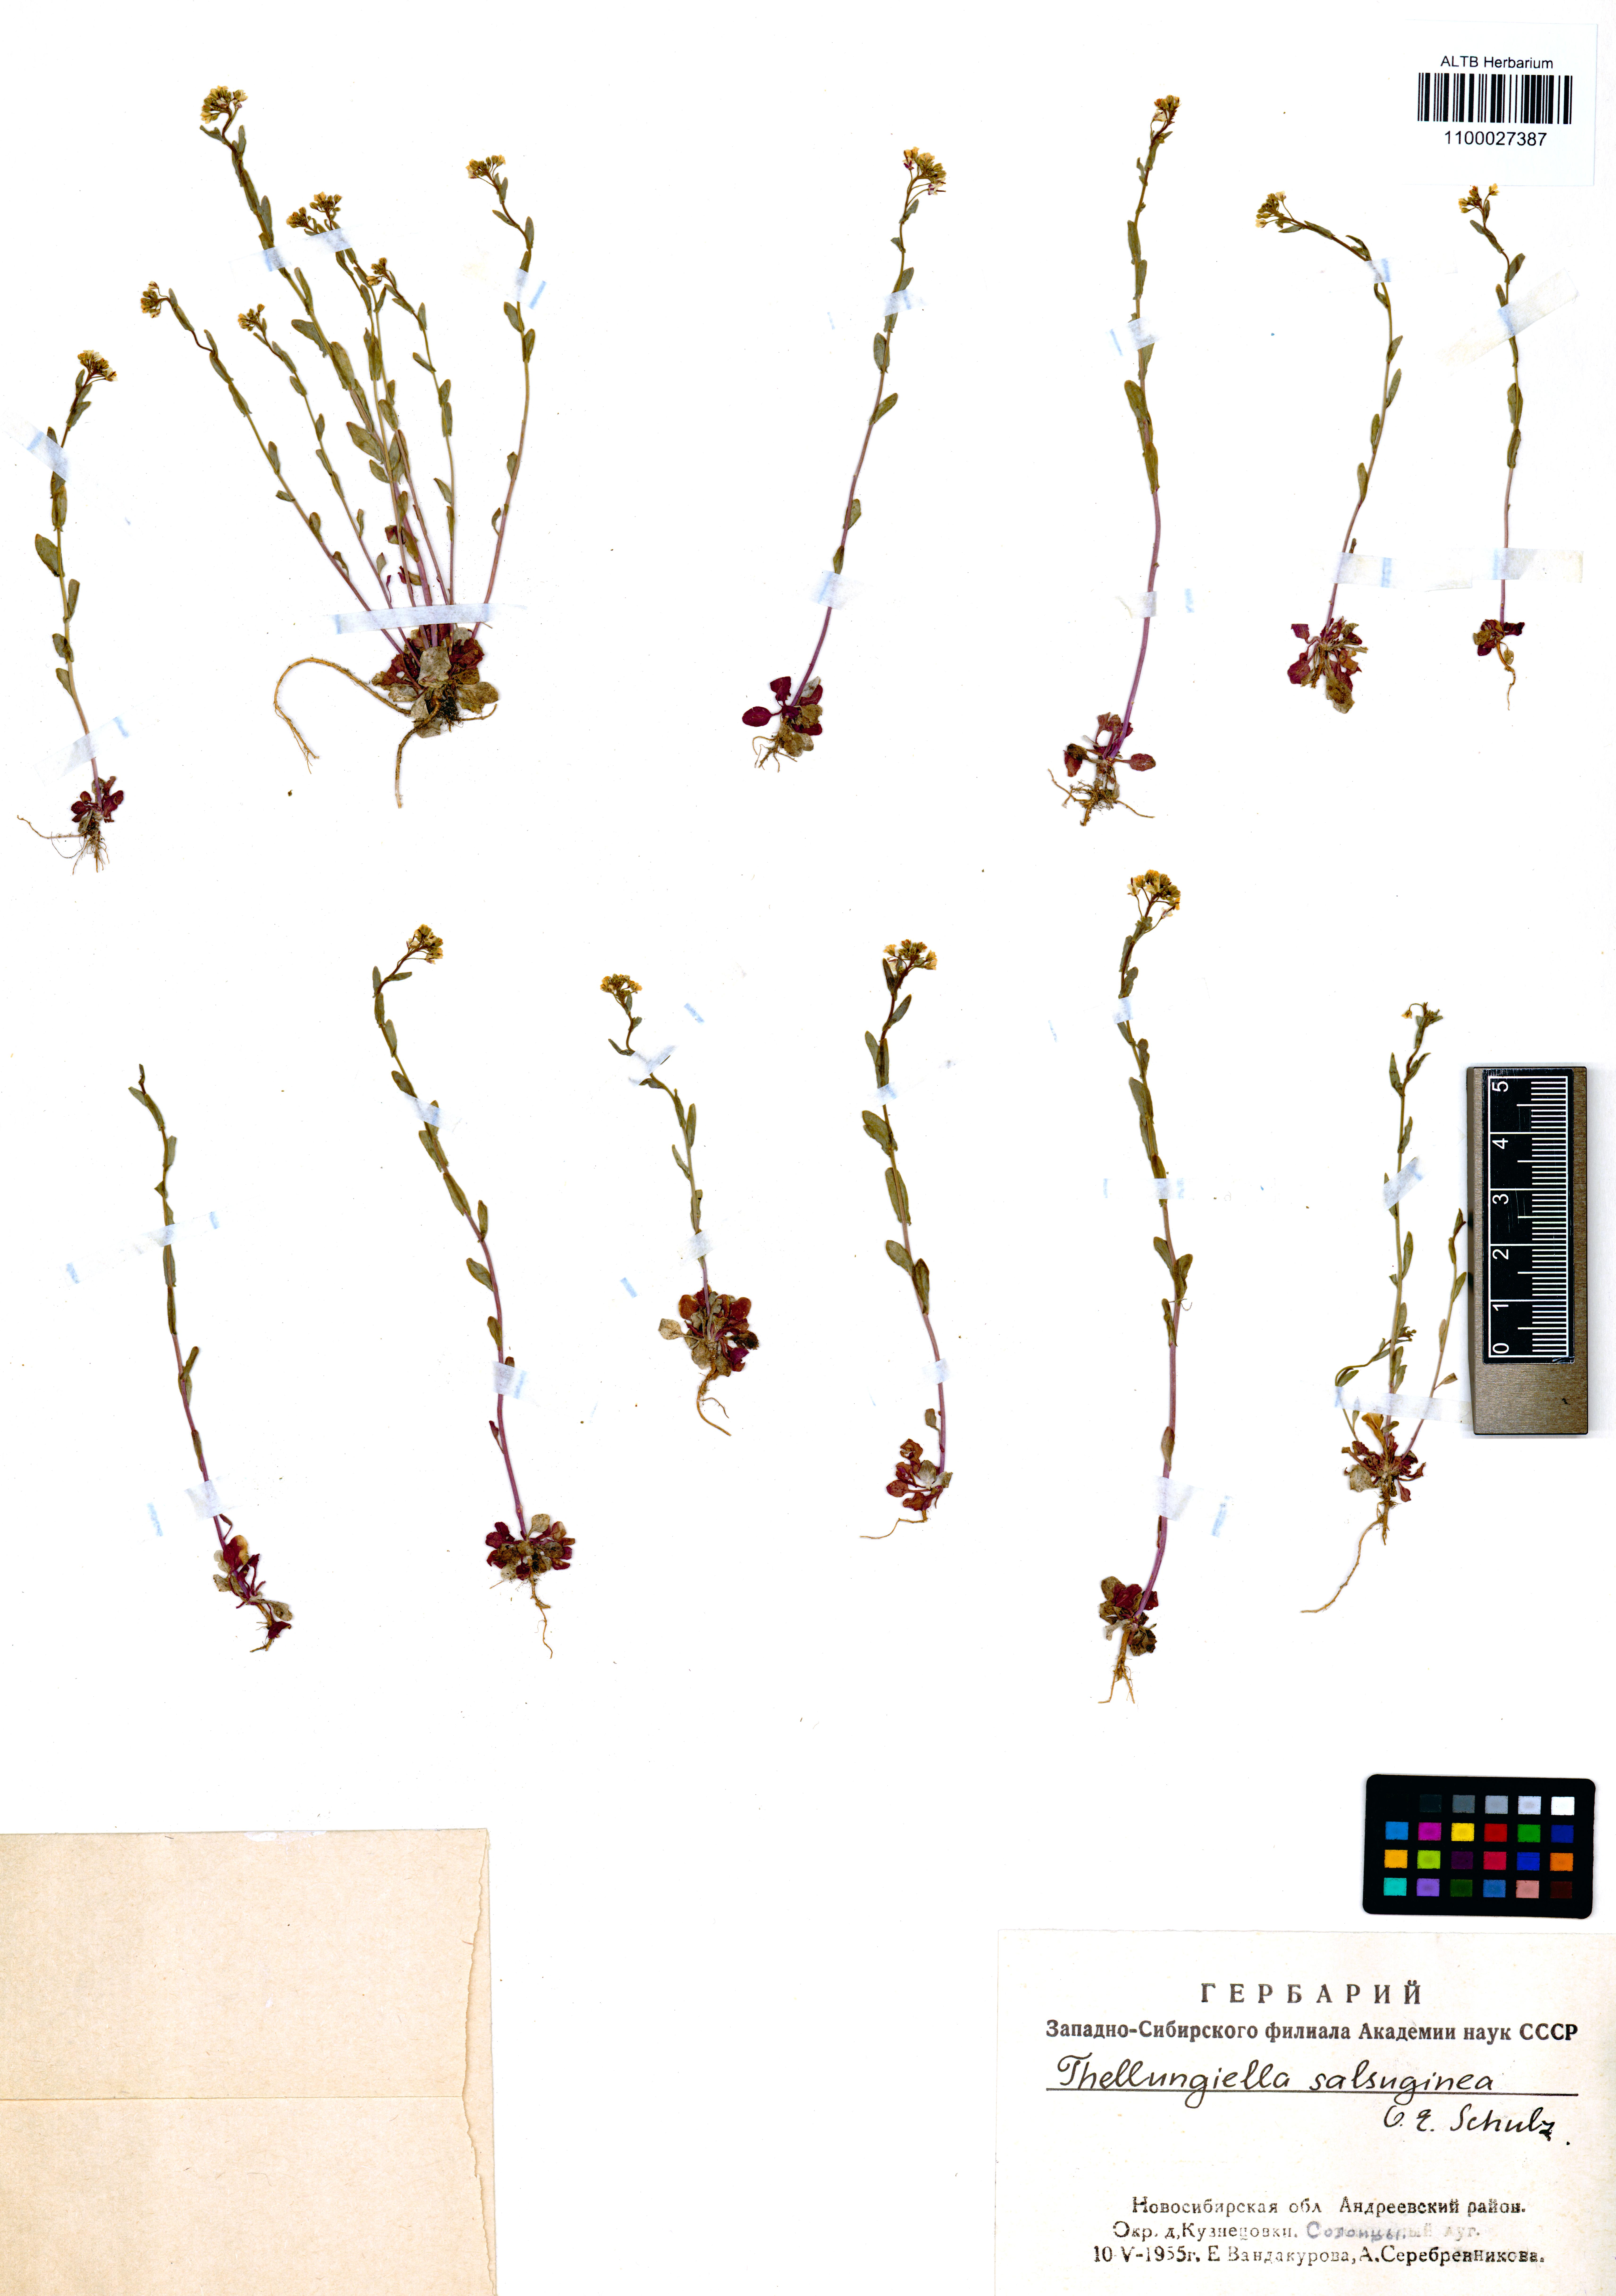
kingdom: Plantae
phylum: Tracheophyta
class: Magnoliopsida
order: Brassicales
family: Brassicaceae
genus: Eutrema
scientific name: Eutrema salsugineum
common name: Mouse-ear cress
